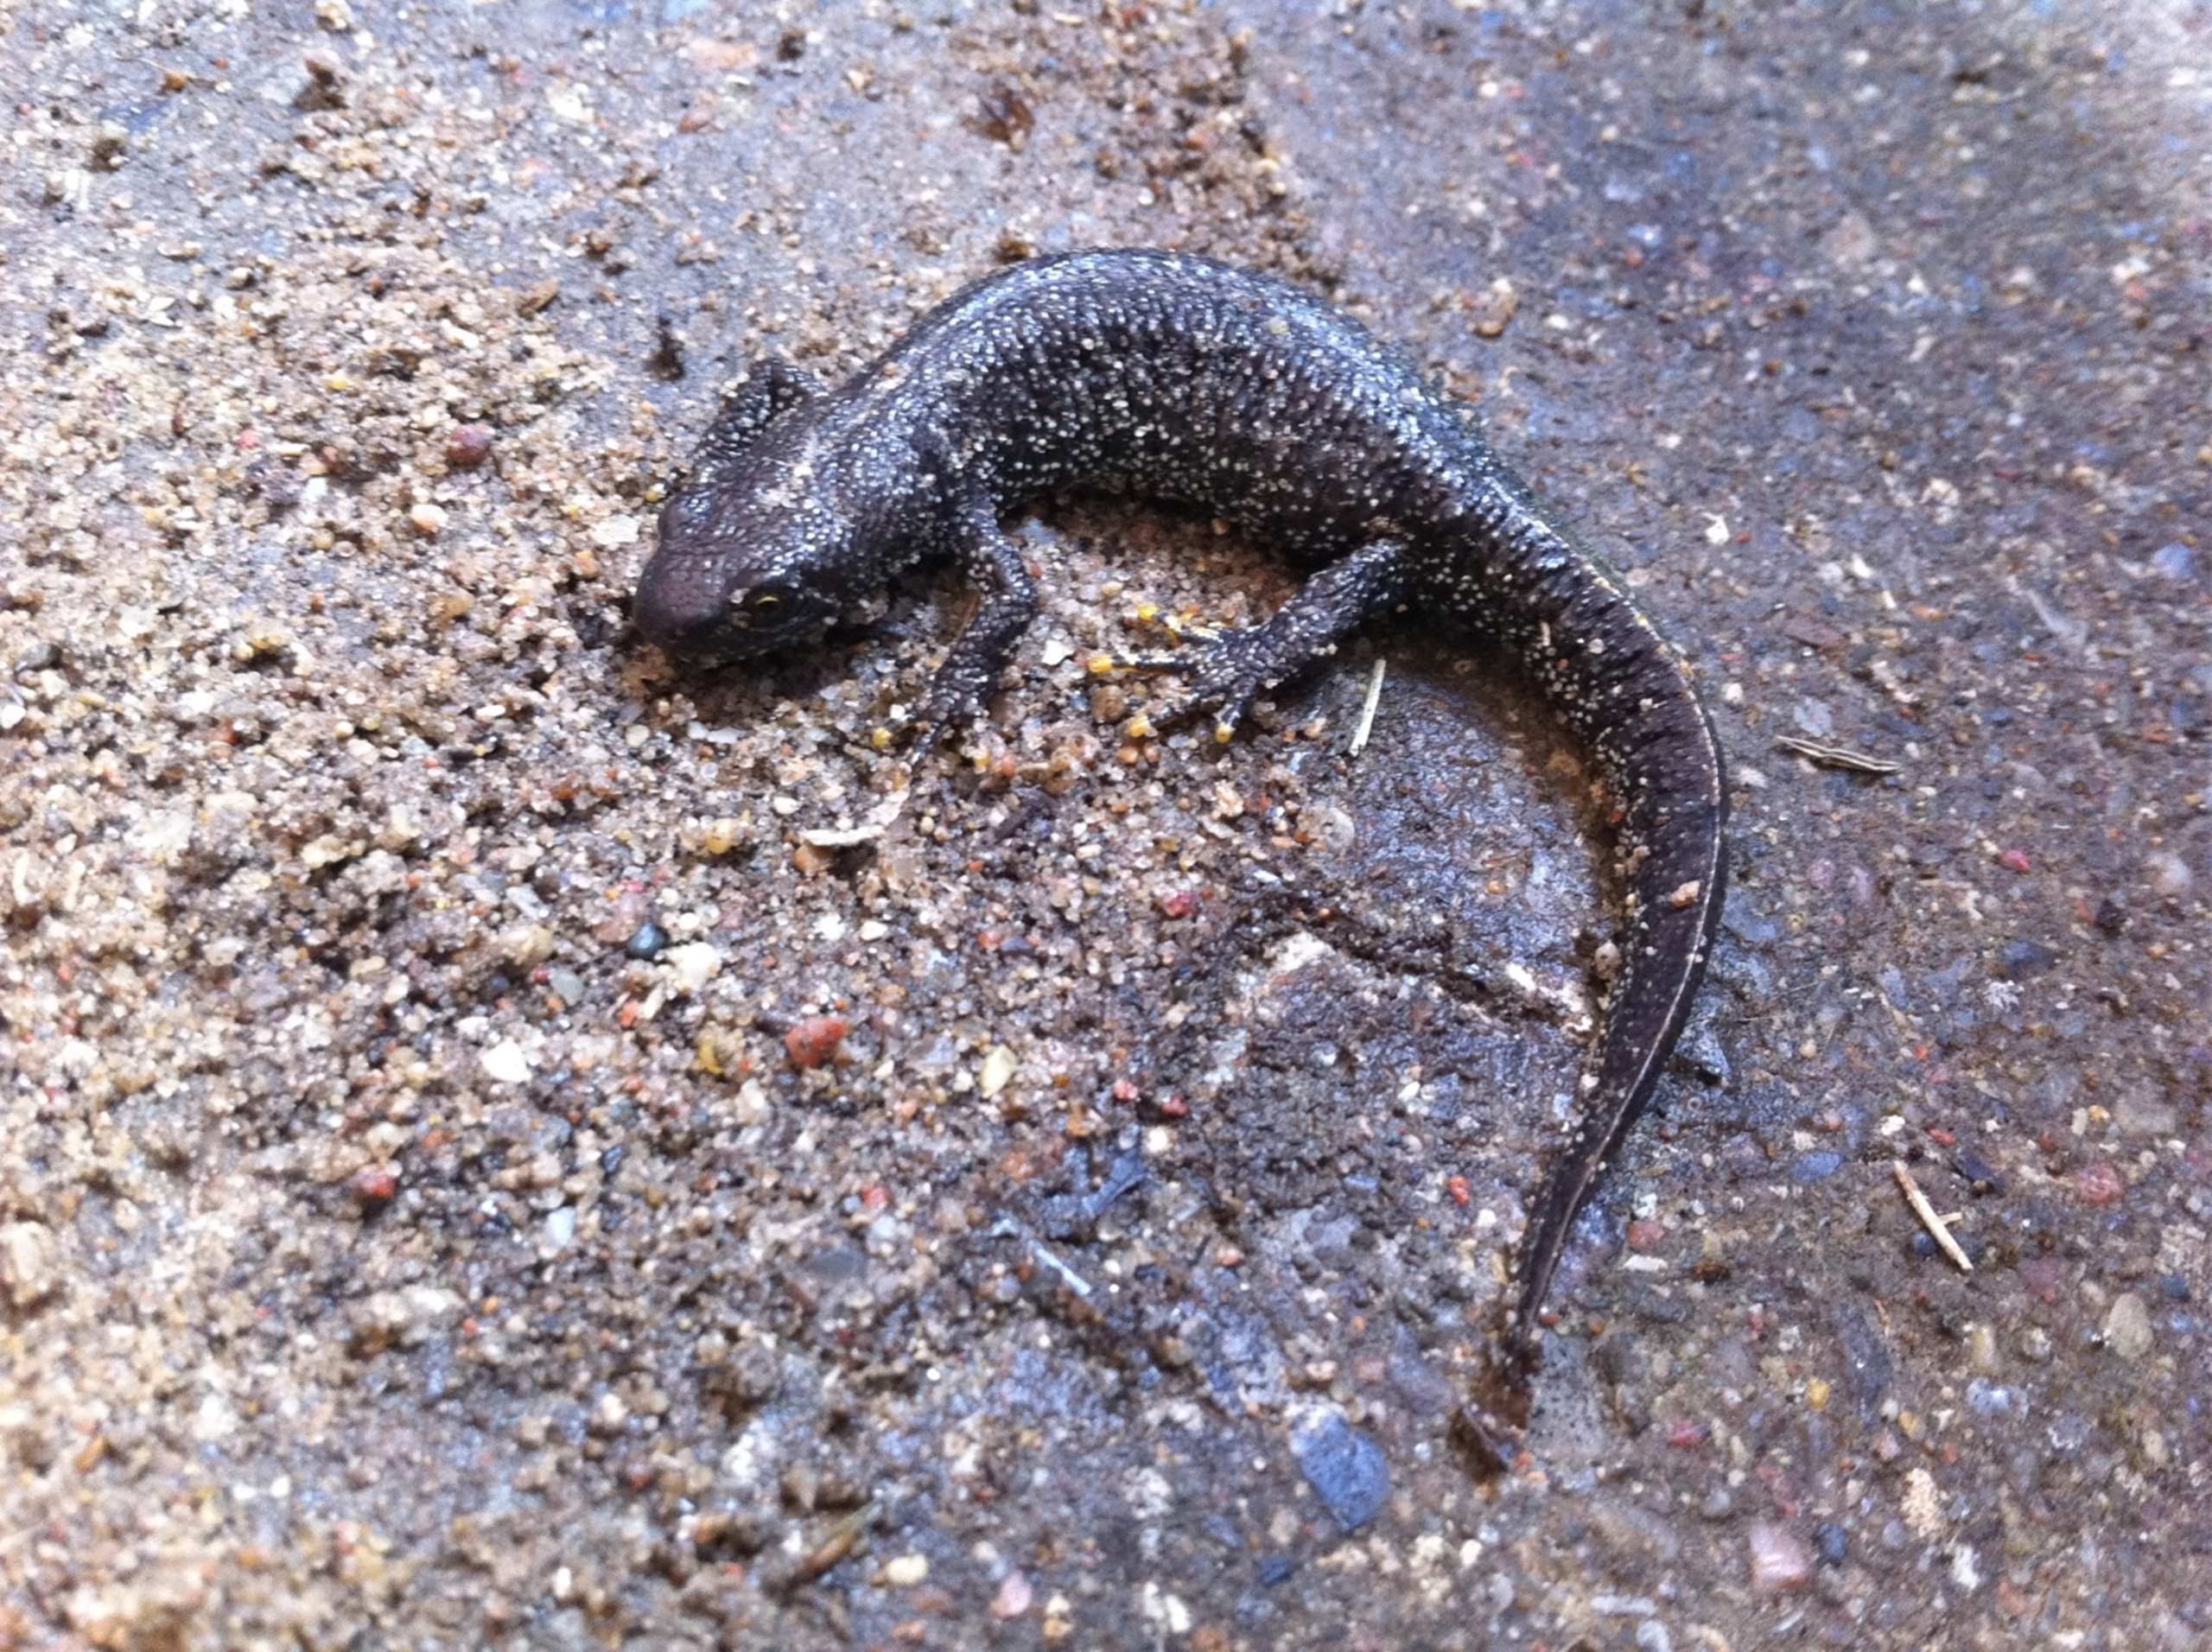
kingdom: Animalia
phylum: Chordata
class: Amphibia
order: Caudata
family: Salamandridae
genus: Triturus
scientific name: Triturus cristatus
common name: Stor vandsalamander
